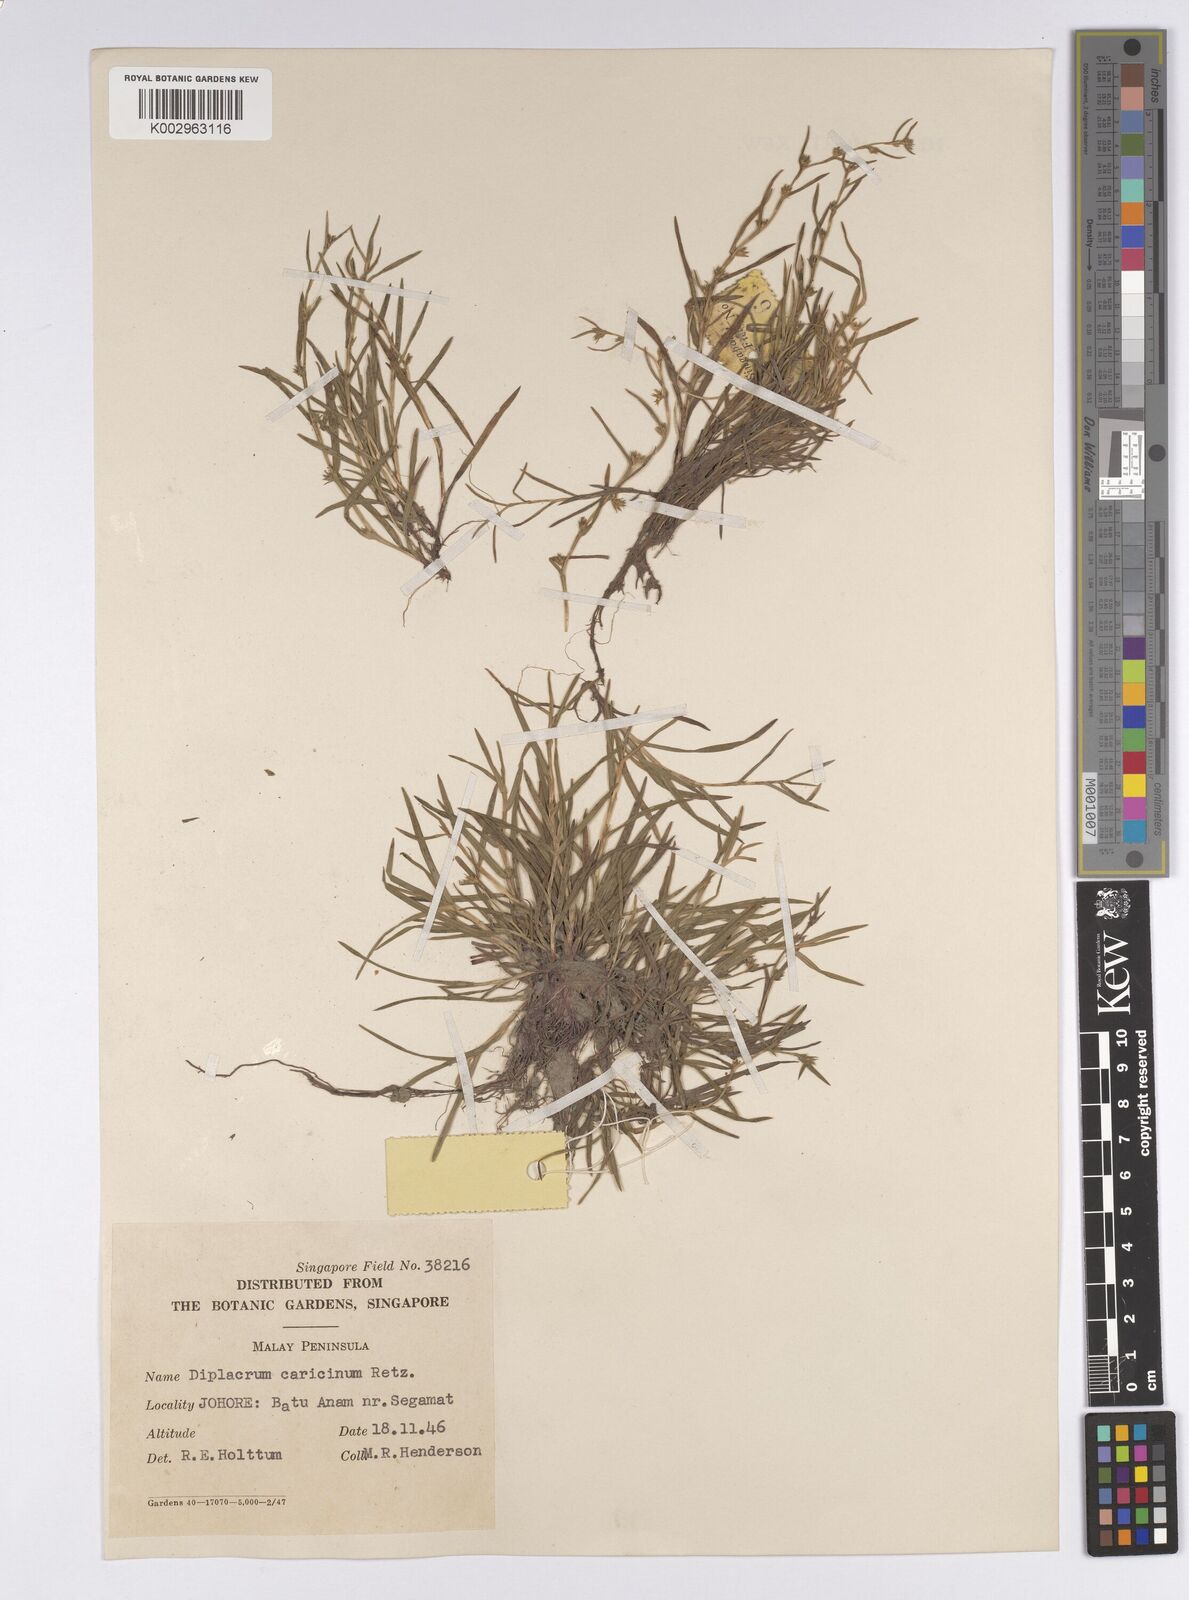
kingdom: Plantae
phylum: Tracheophyta
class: Liliopsida
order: Poales
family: Cyperaceae
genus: Diplacrum
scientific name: Diplacrum caricinum
